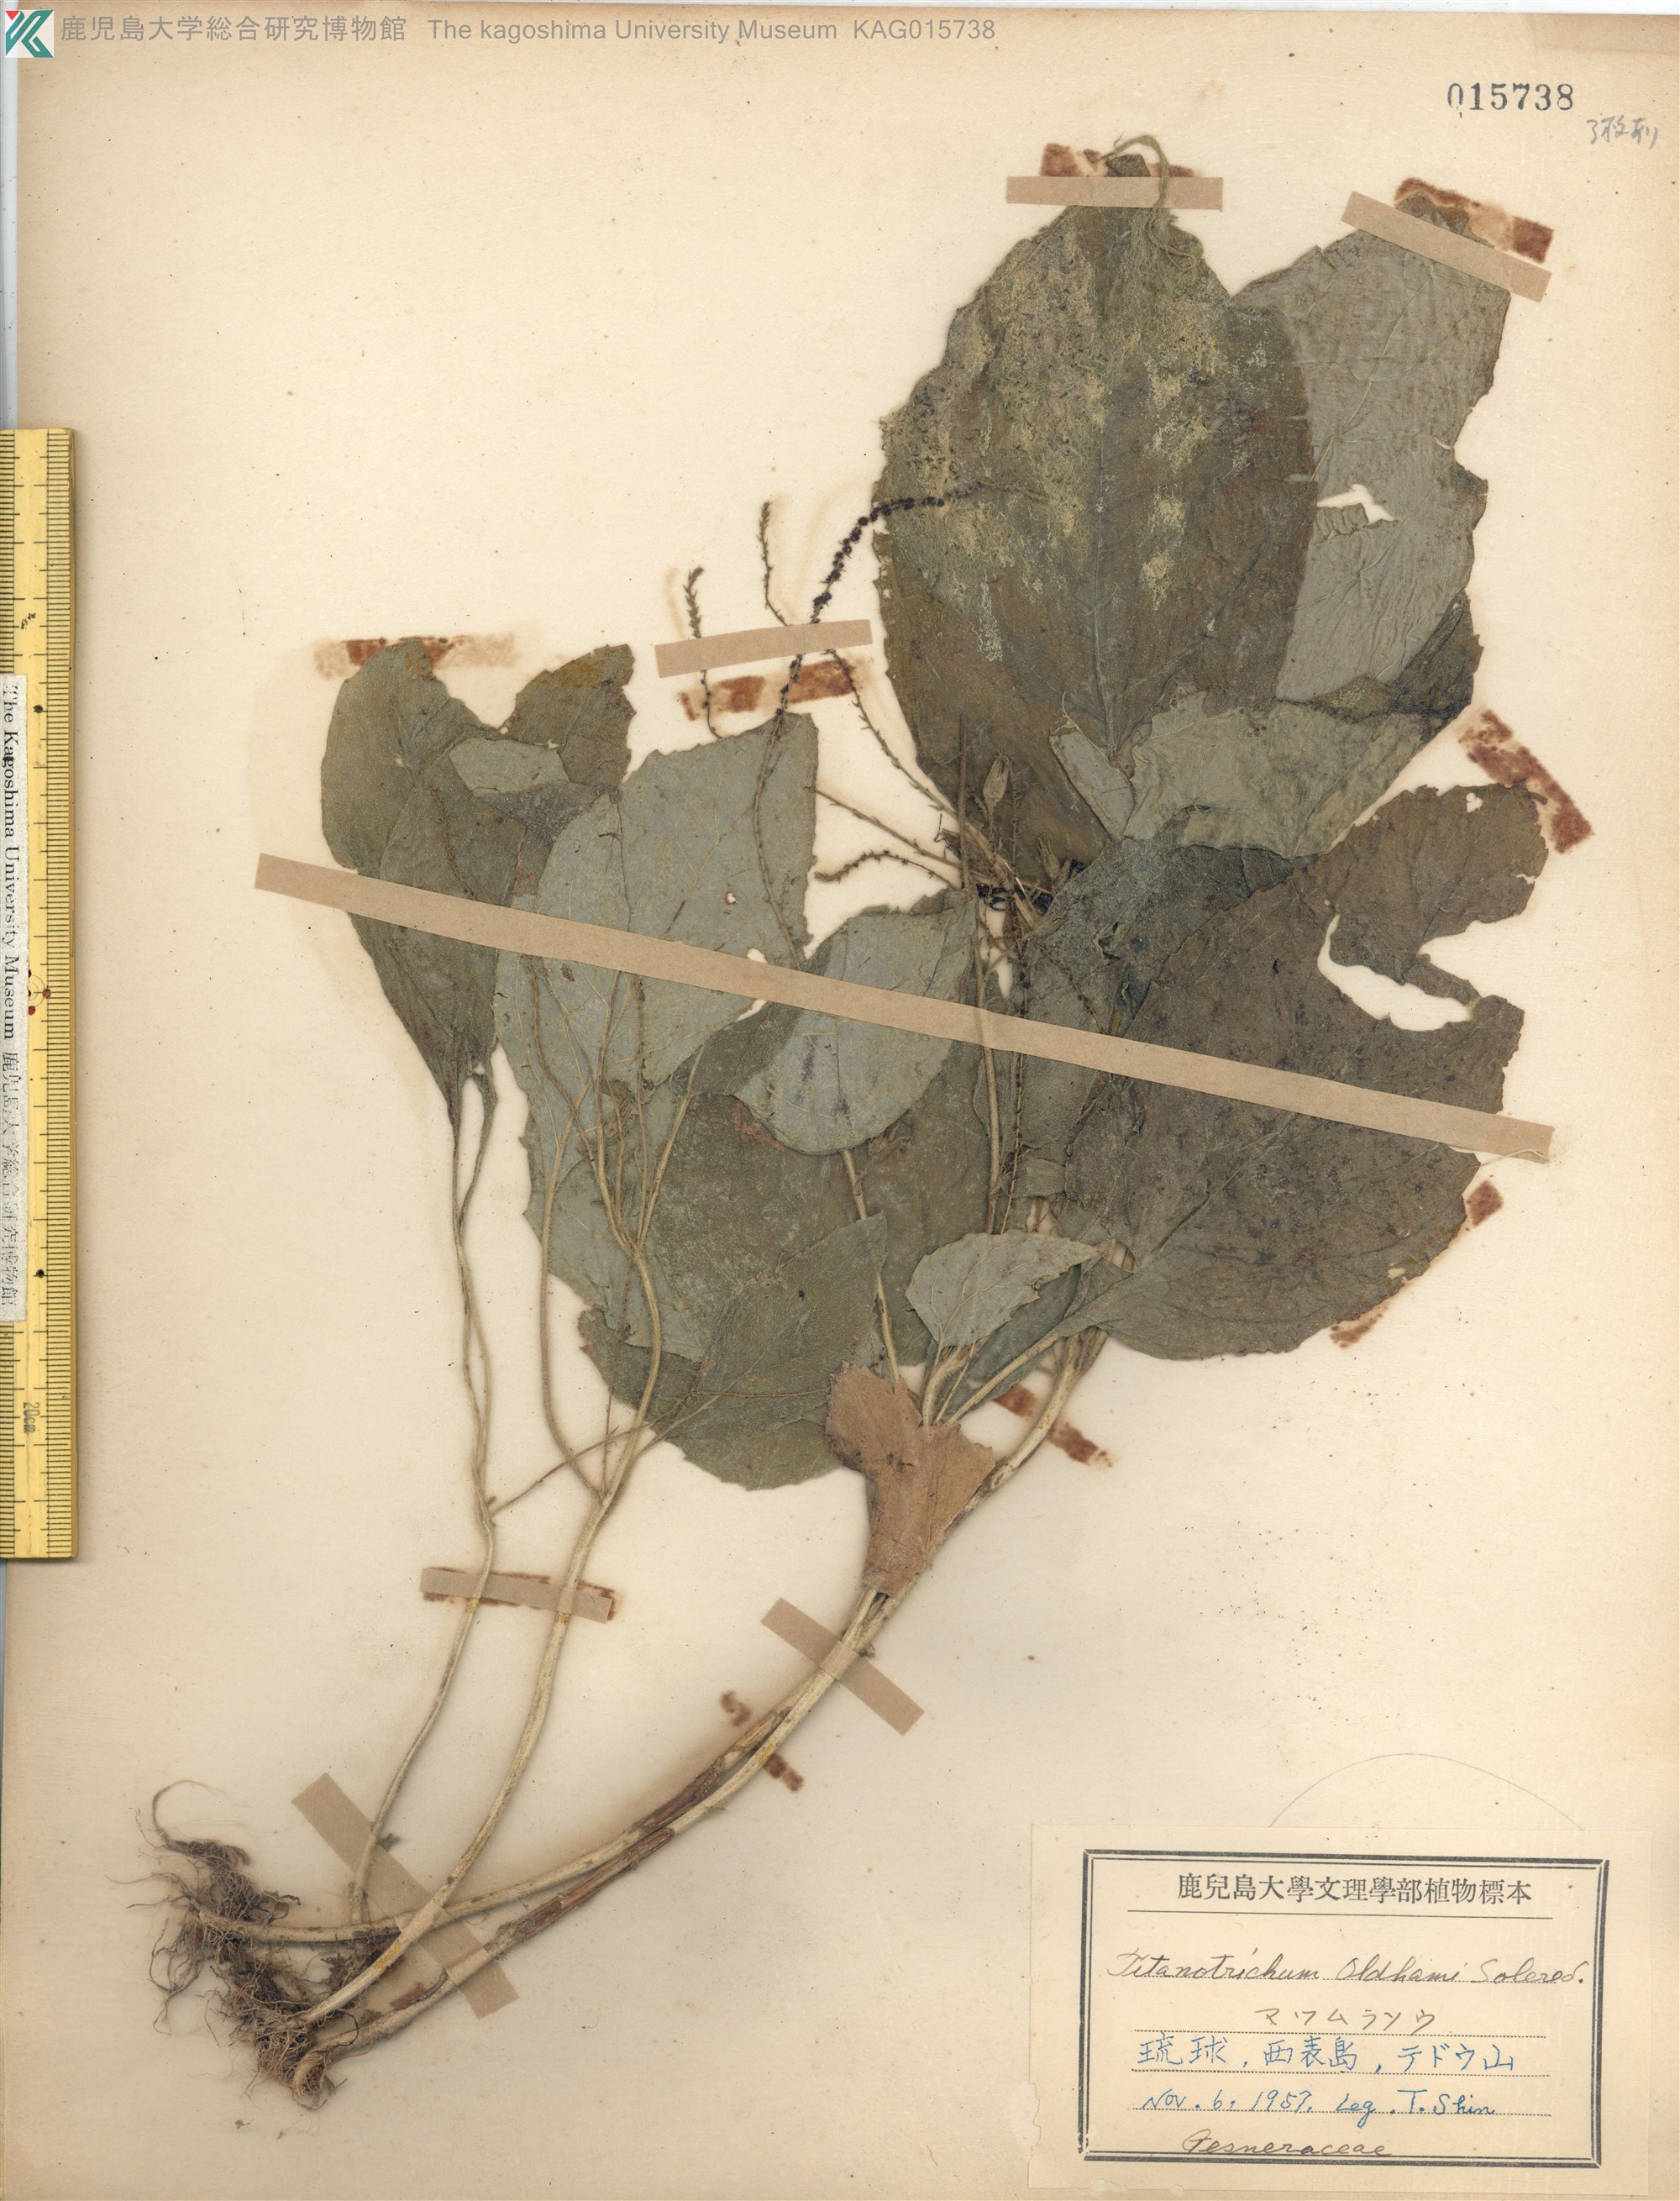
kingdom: Plantae
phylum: Tracheophyta
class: Magnoliopsida
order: Lamiales
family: Gesneriaceae
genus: Titanotrichum
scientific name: Titanotrichum oldhamii
